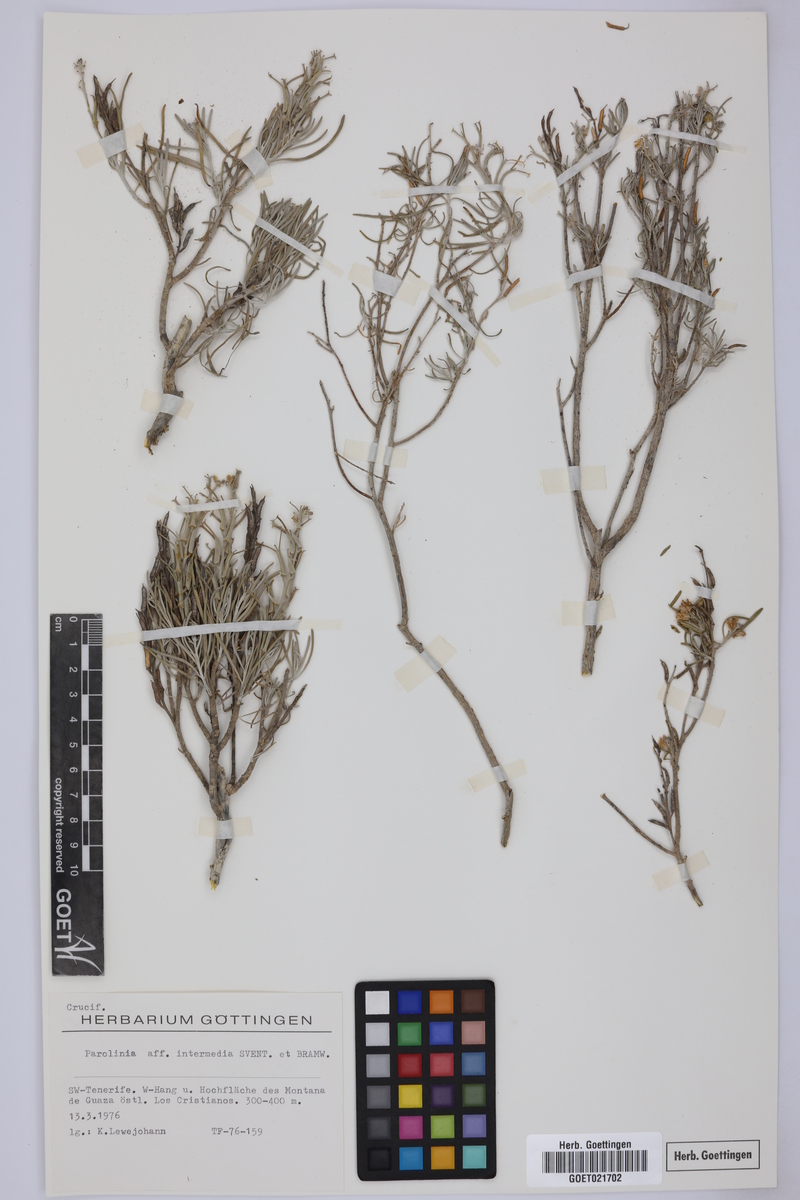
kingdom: Plantae
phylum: Tracheophyta
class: Magnoliopsida
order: Brassicales
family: Brassicaceae
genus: Parolinia
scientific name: Parolinia intermedia
